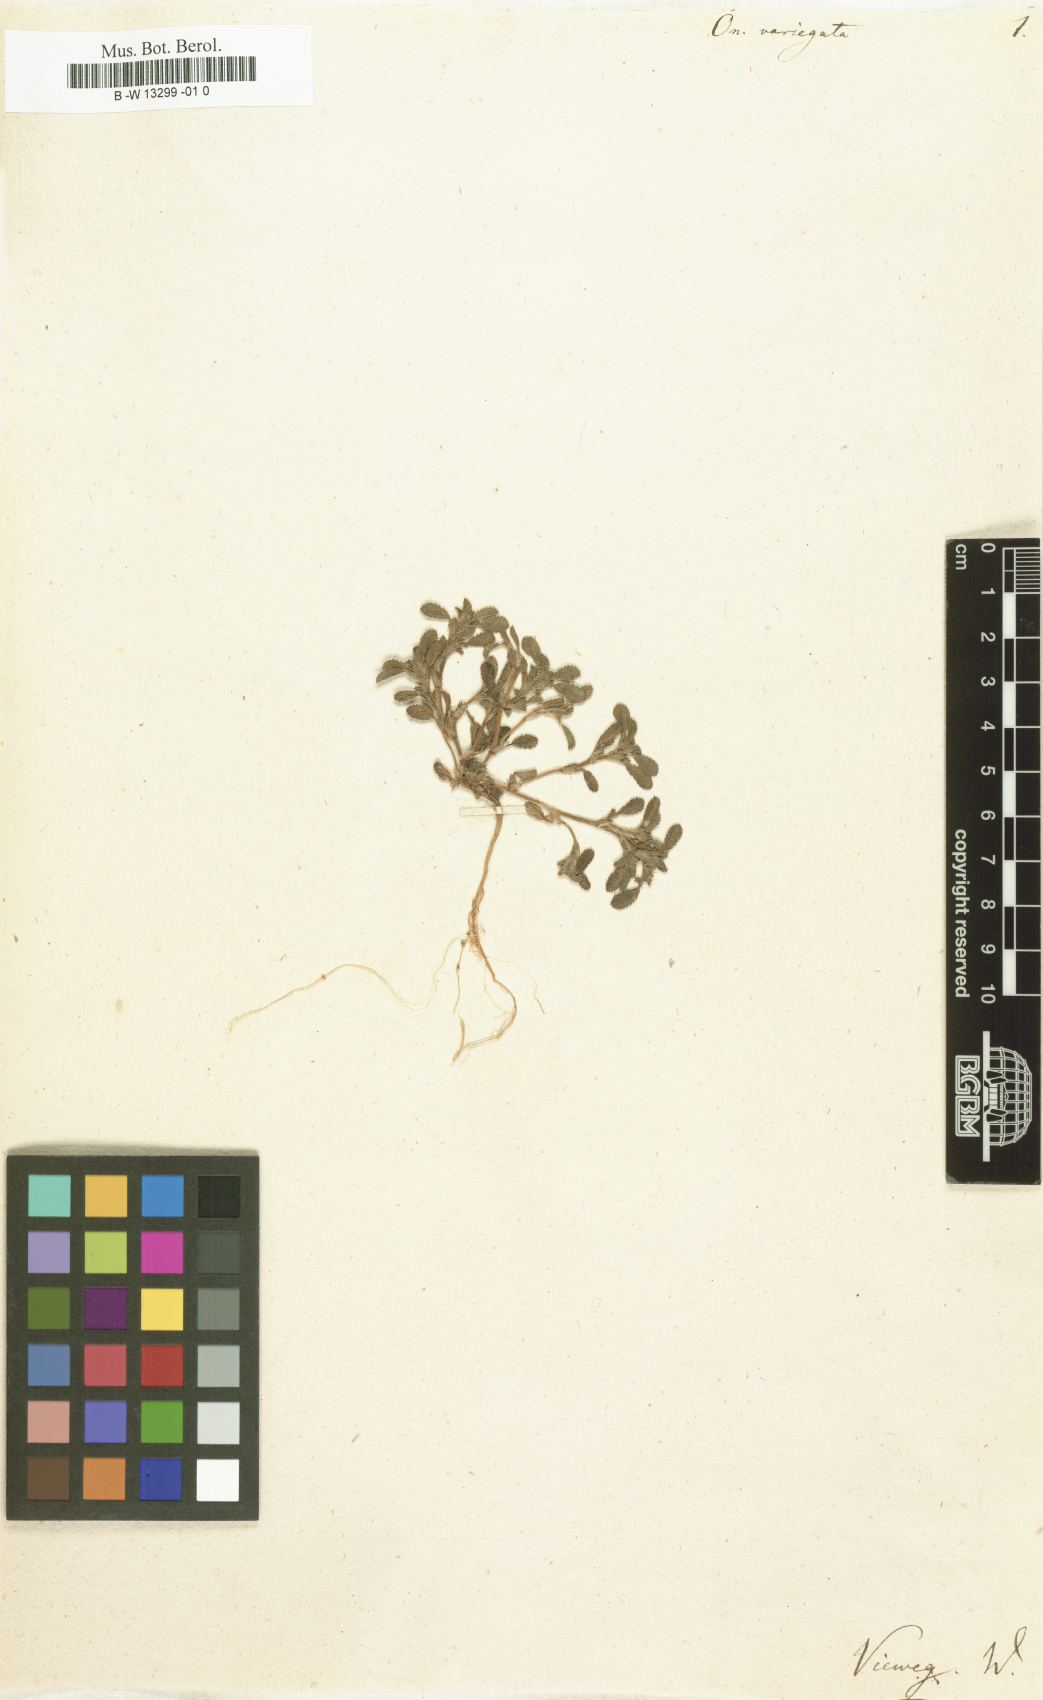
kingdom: Plantae
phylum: Tracheophyta
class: Magnoliopsida
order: Fabales
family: Fabaceae
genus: Ononis
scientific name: Ononis variegata
